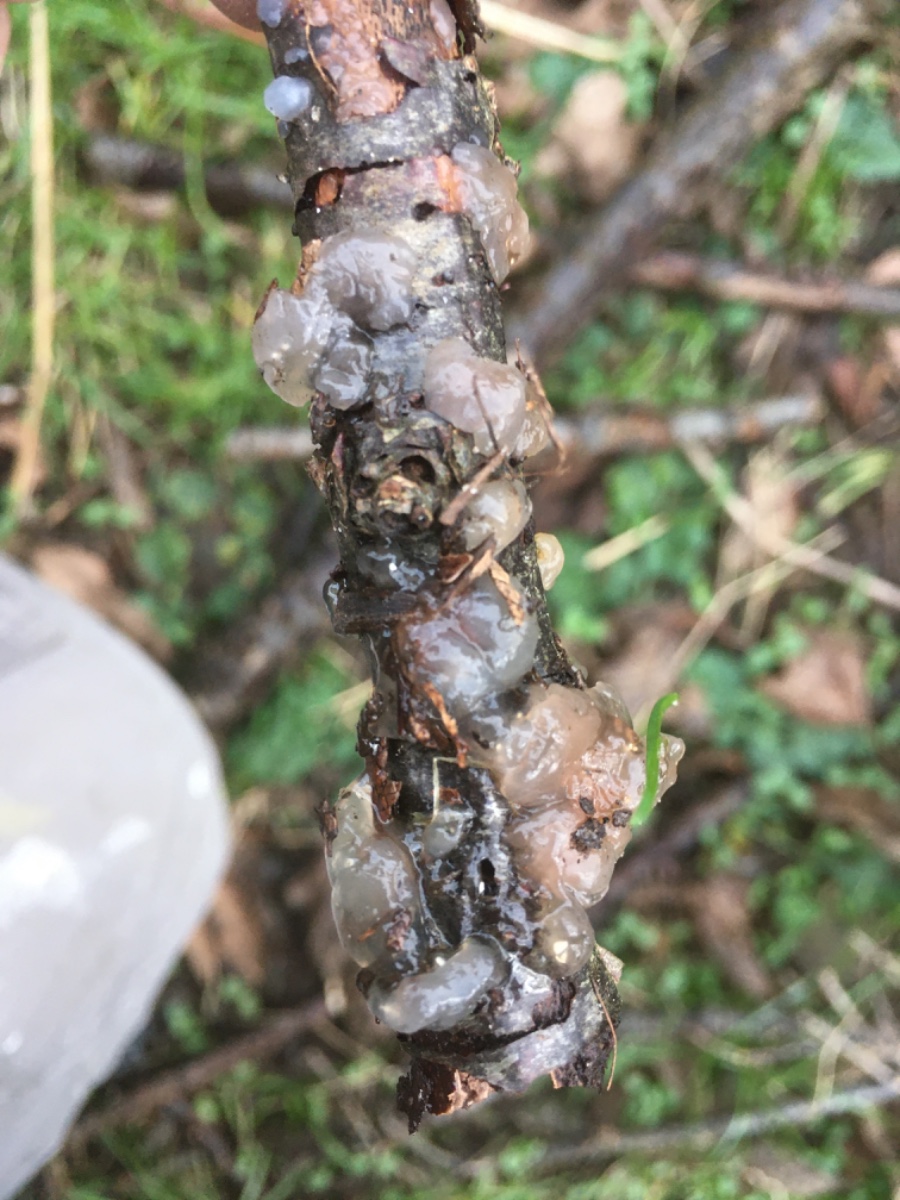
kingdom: Fungi
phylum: Basidiomycota
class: Agaricomycetes
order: Auriculariales
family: Hyaloriaceae
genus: Myxarium
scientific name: Myxarium nucleatum
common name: klar bævretop
